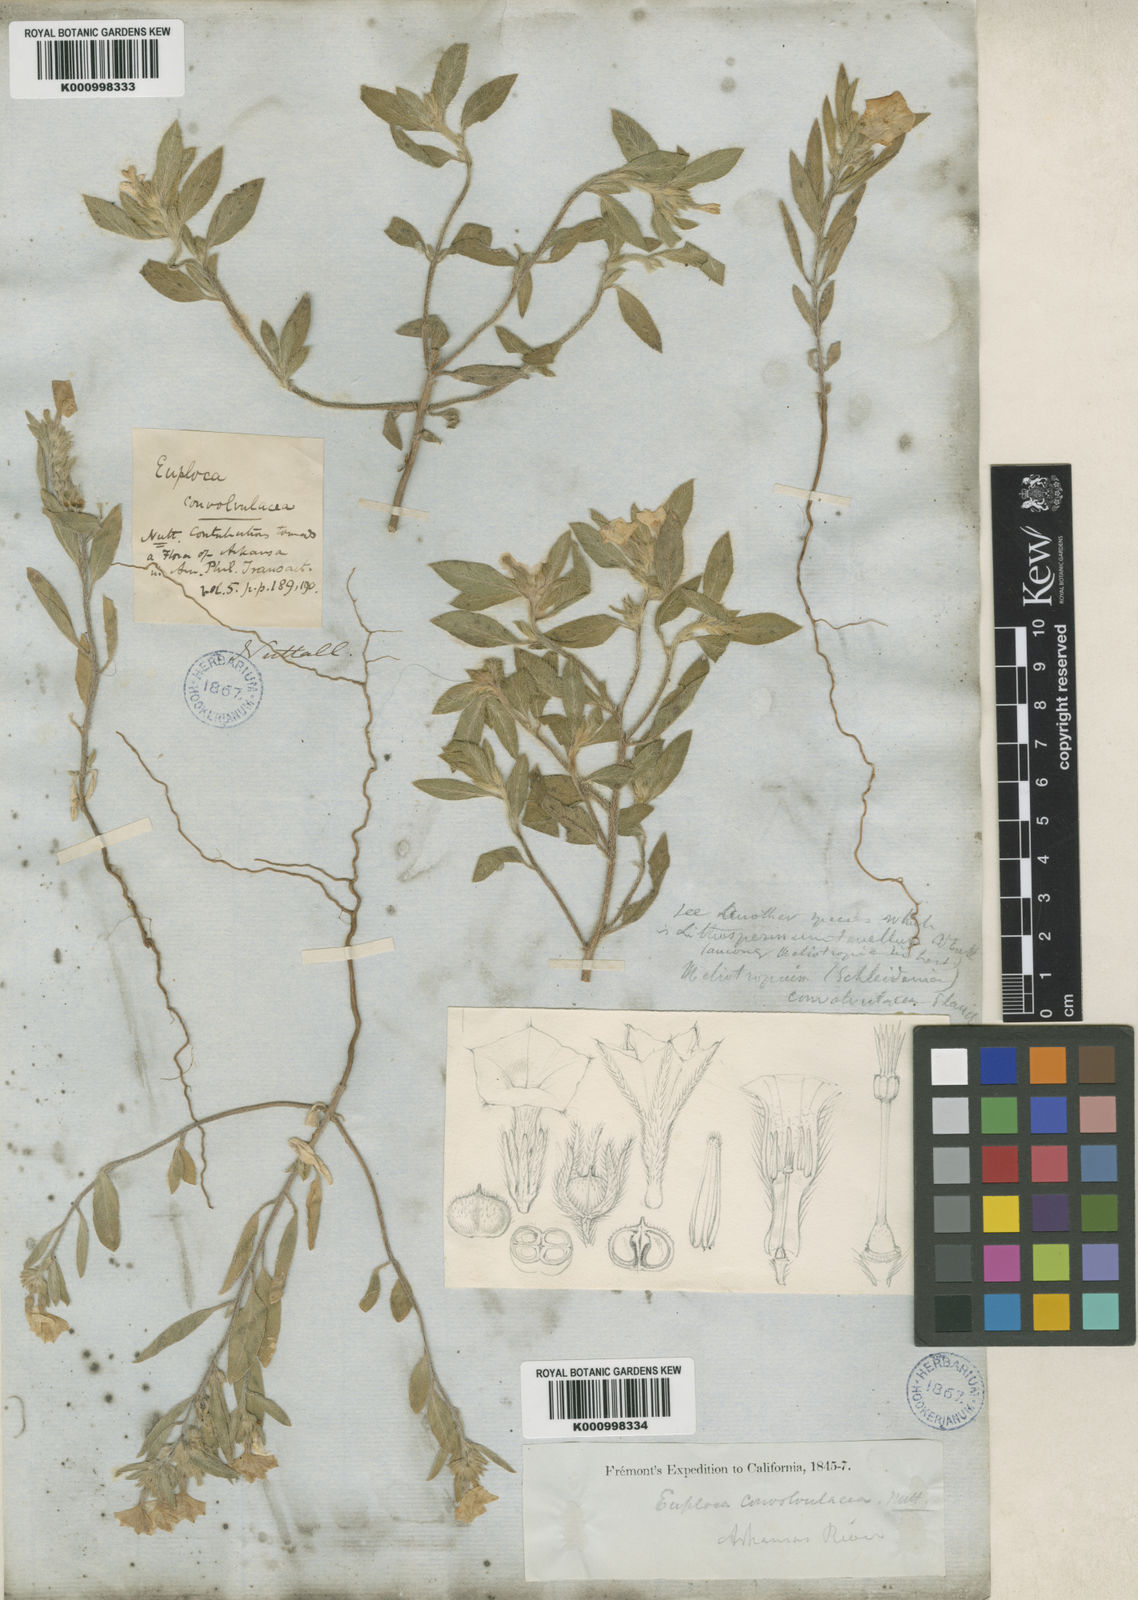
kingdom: Plantae
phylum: Tracheophyta
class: Magnoliopsida
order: Boraginales
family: Heliotropiaceae
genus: Euploca
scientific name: Euploca convolvulacea
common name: Bindweed heliotrope
